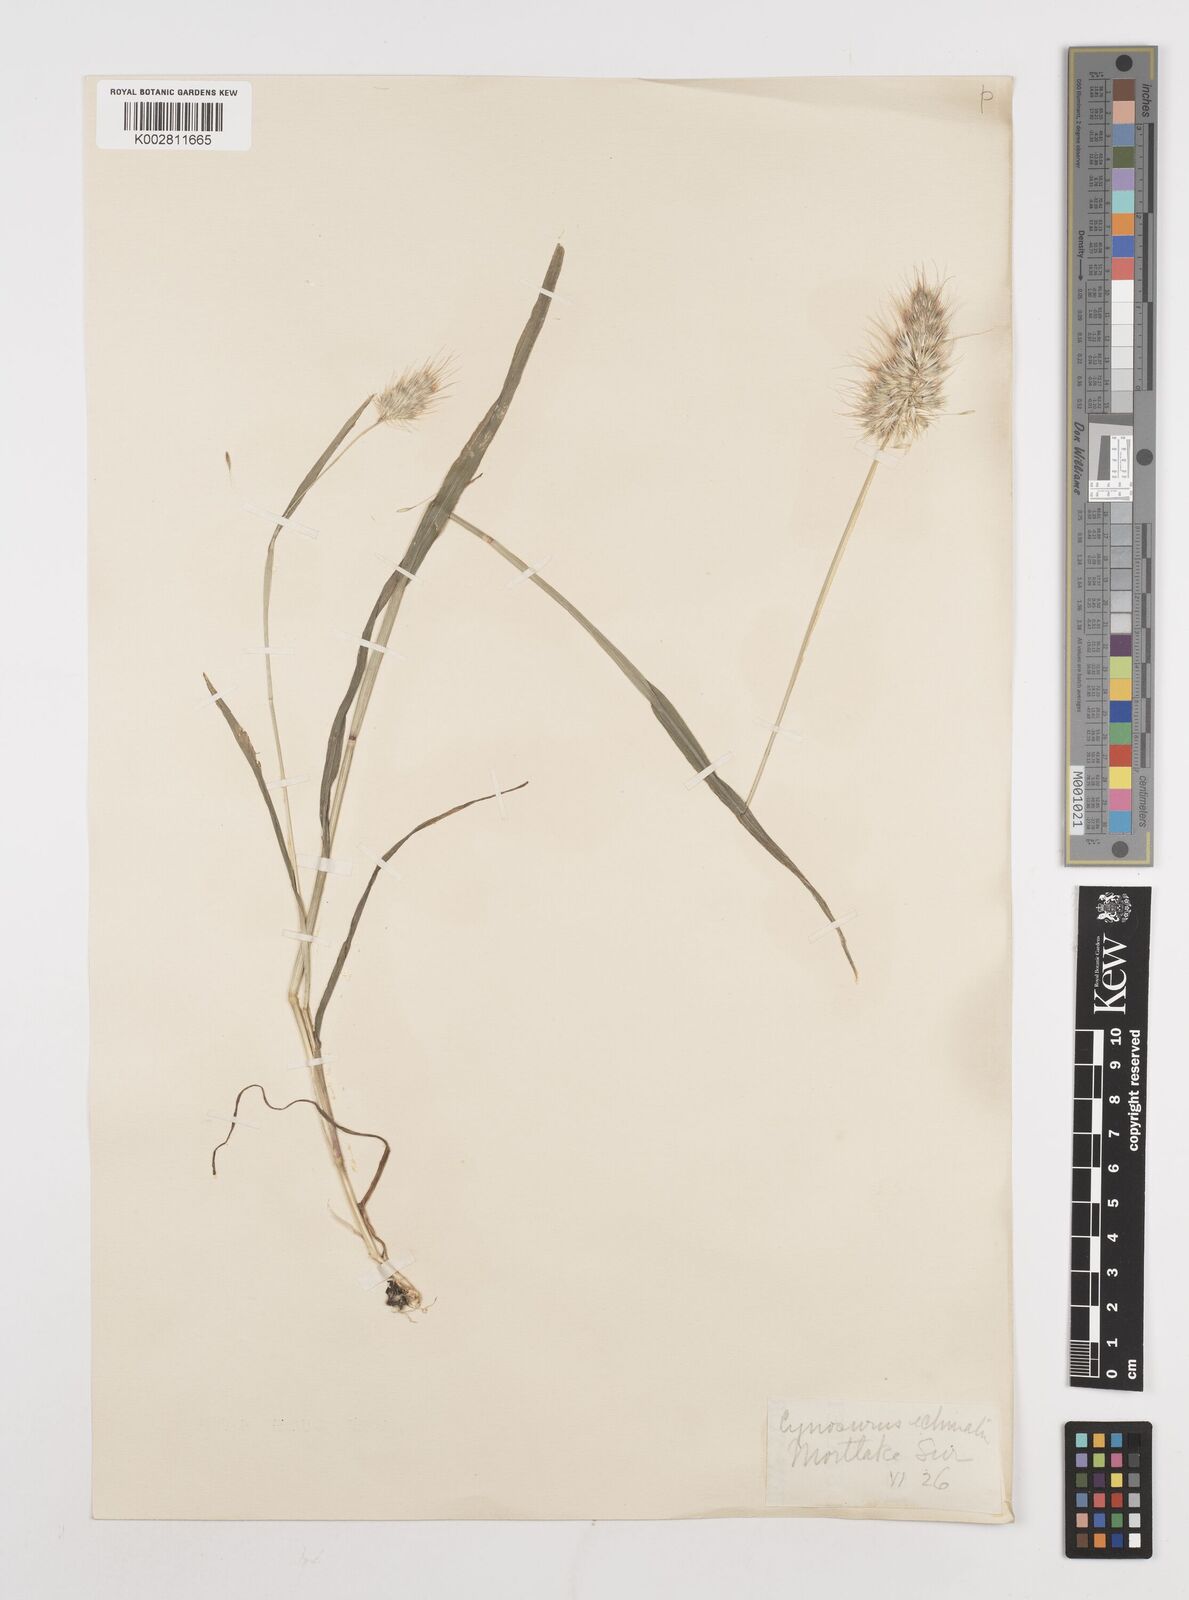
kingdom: Plantae
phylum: Tracheophyta
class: Liliopsida
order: Poales
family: Poaceae
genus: Cynosurus
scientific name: Cynosurus echinatus
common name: Rough dog's-tail
